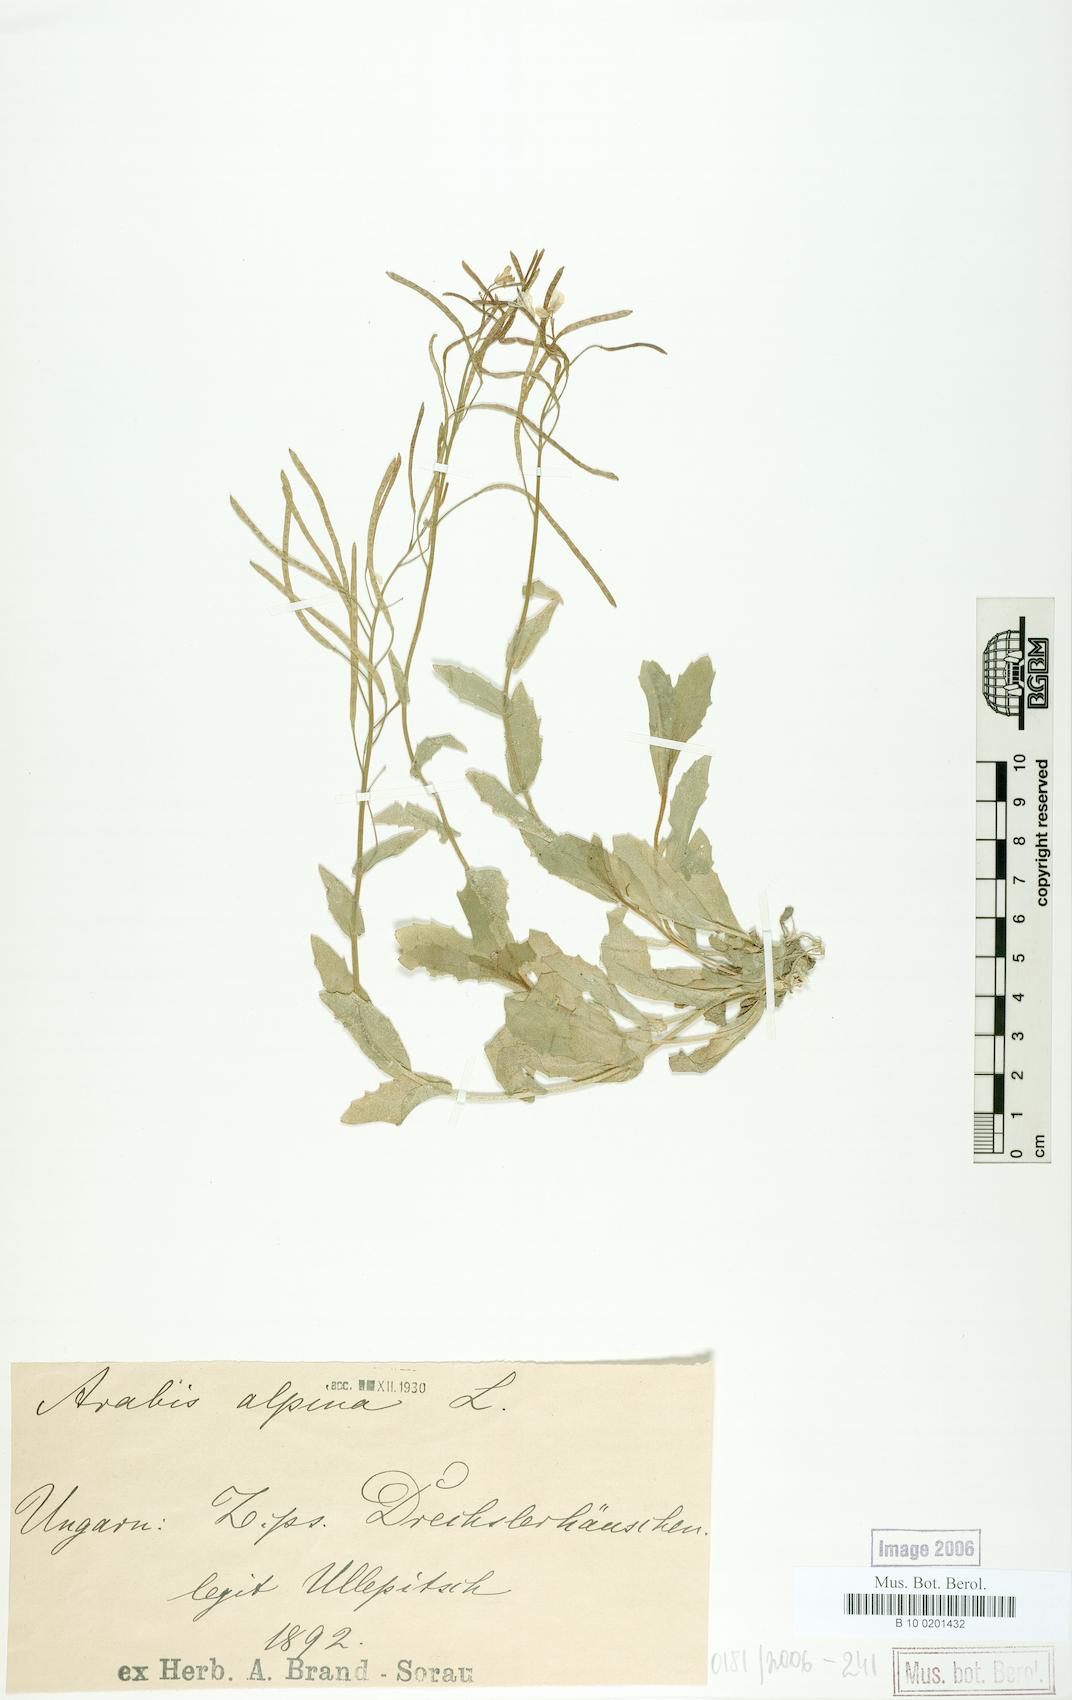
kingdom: Plantae
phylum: Tracheophyta
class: Magnoliopsida
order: Brassicales
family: Brassicaceae
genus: Arabis
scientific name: Arabis alpina
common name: Alpine rock-cress
